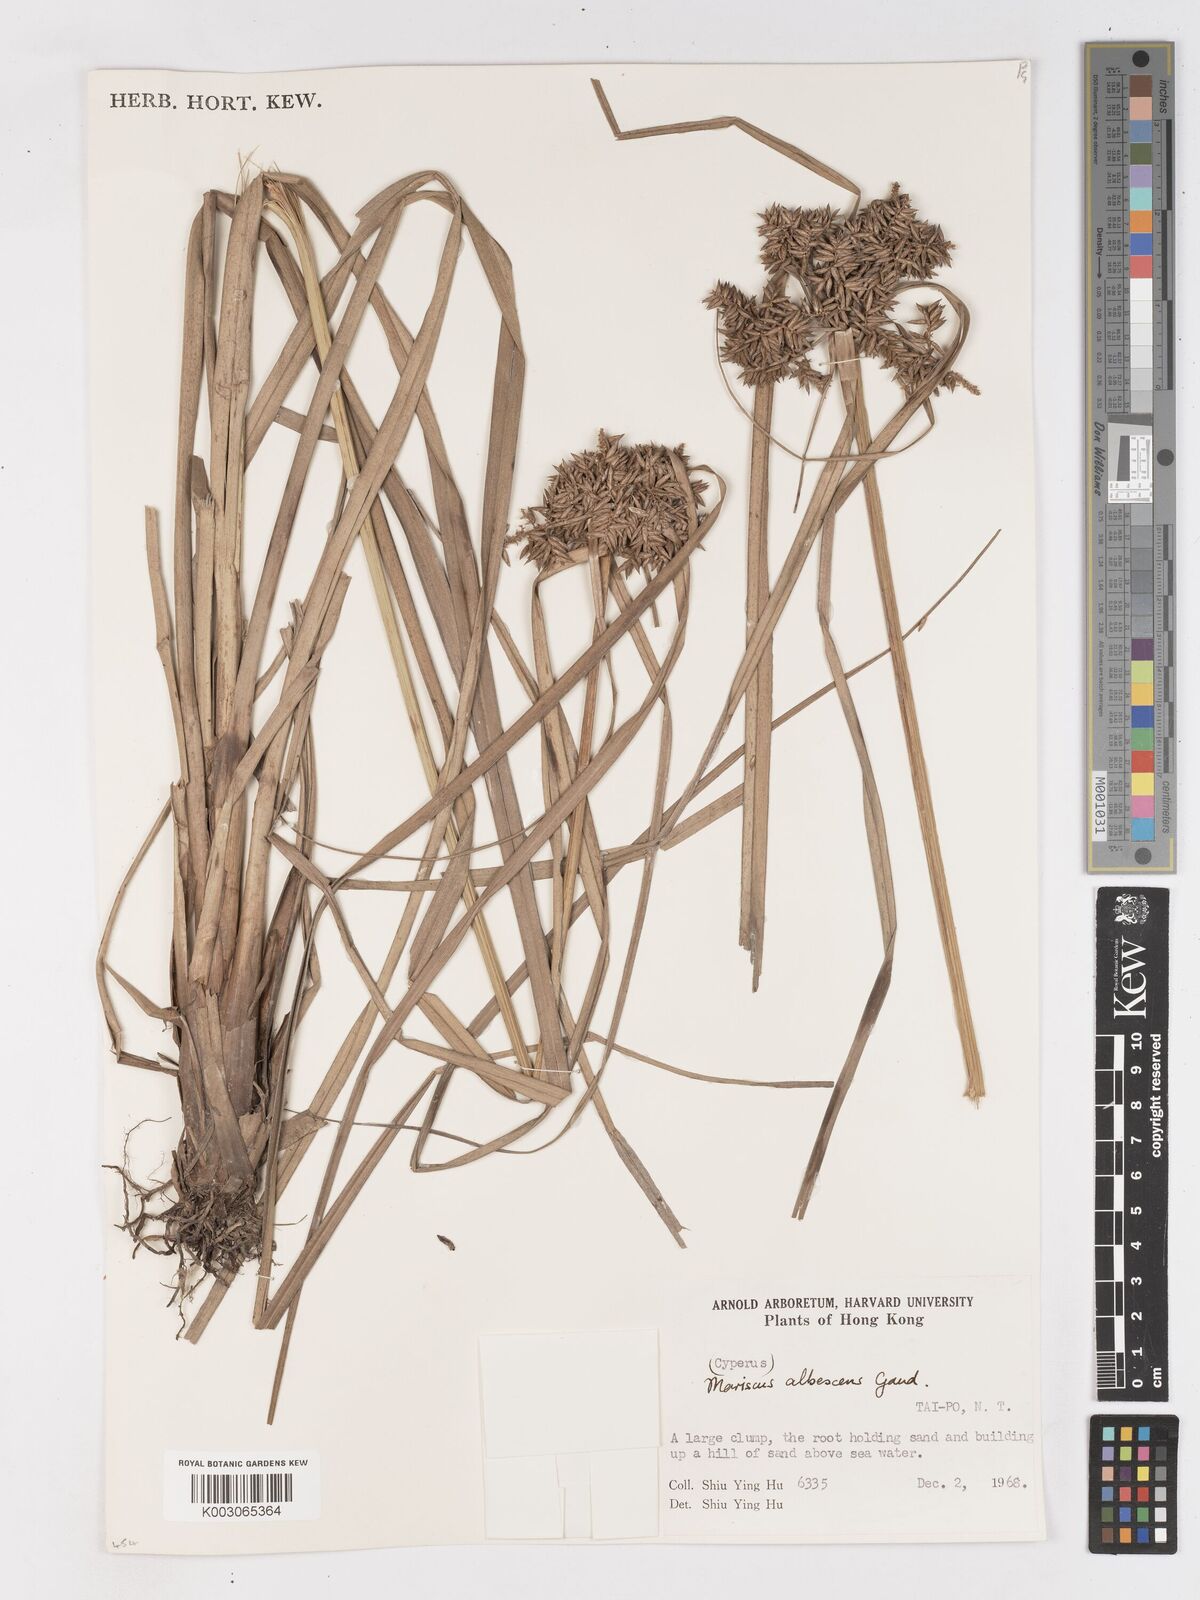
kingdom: Plantae
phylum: Tracheophyta
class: Liliopsida
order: Poales
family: Cyperaceae
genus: Cyperus
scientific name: Cyperus javanicus
